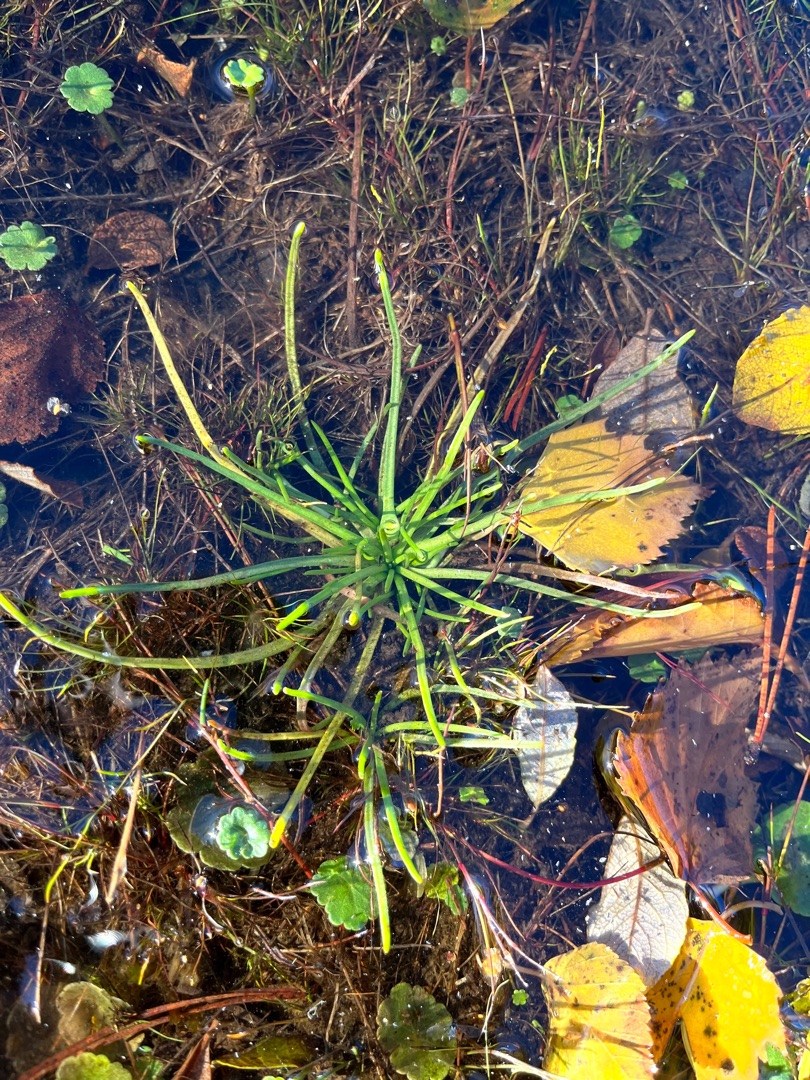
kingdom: Plantae
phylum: Tracheophyta
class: Magnoliopsida
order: Lamiales
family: Plantaginaceae
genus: Littorella
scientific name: Littorella uniflora
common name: Strandbo
